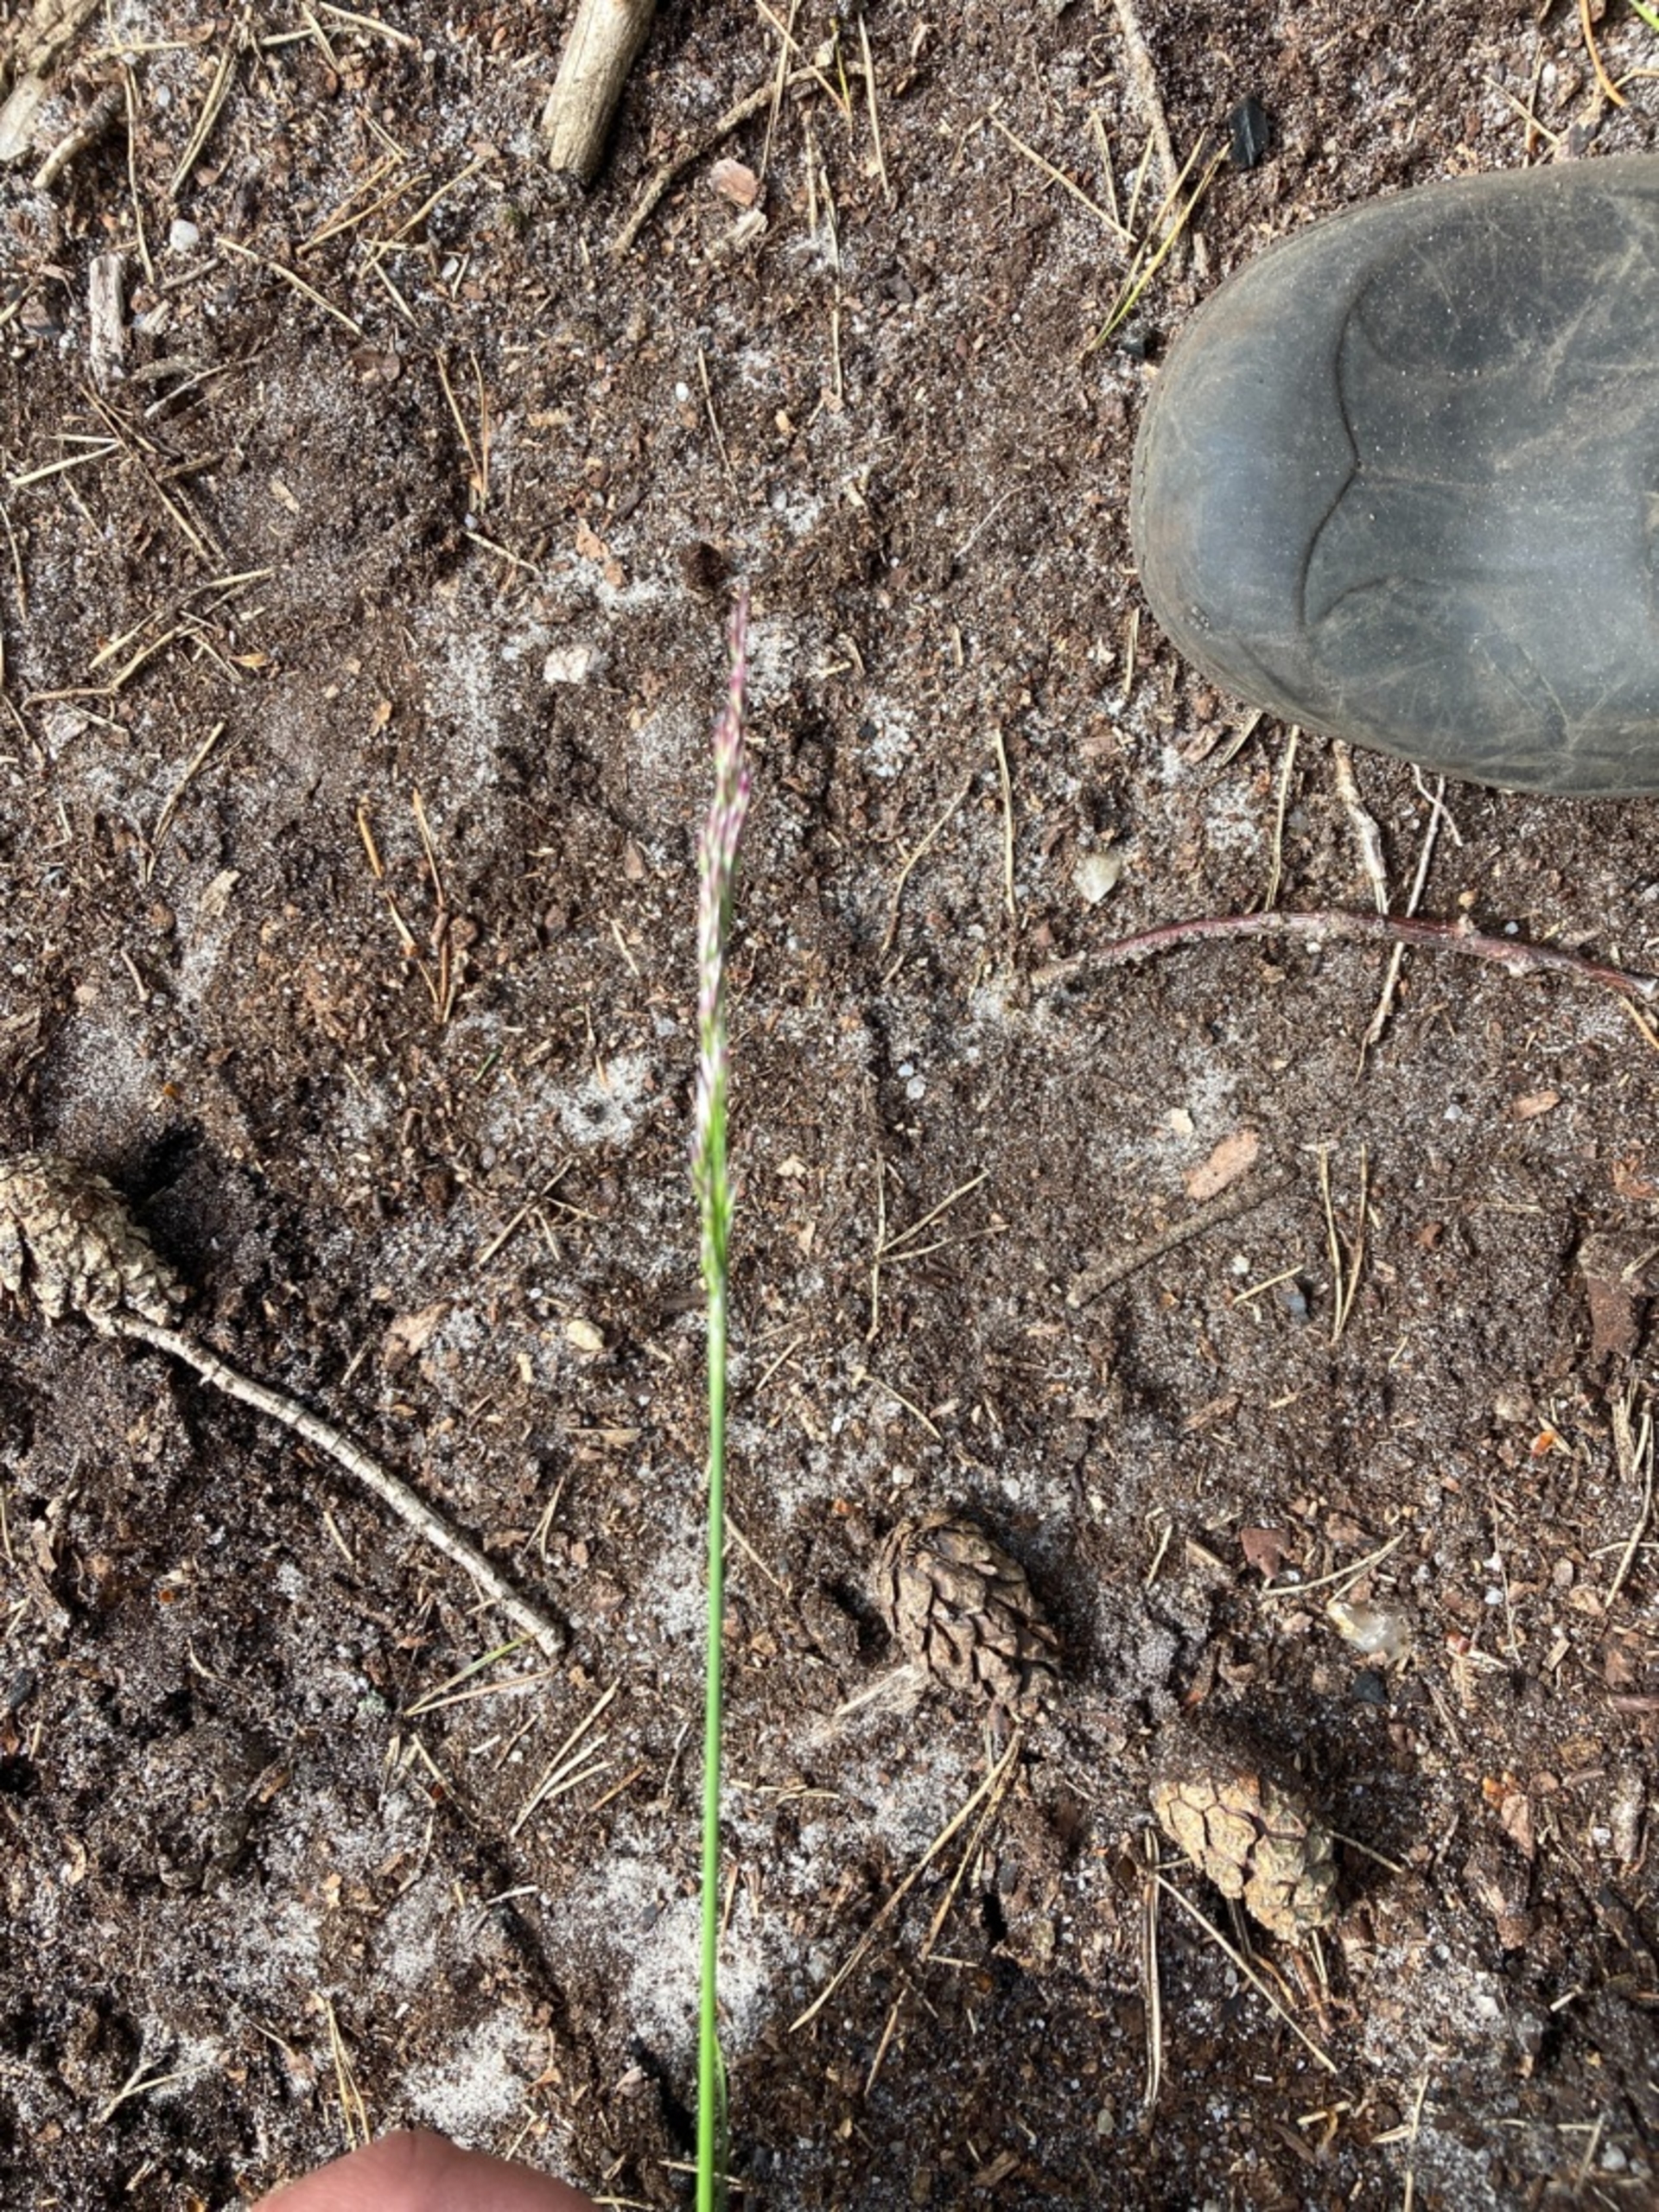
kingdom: Plantae
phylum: Tracheophyta
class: Liliopsida
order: Poales
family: Poaceae
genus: Avenella
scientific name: Avenella flexuosa
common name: Bølget bunke
